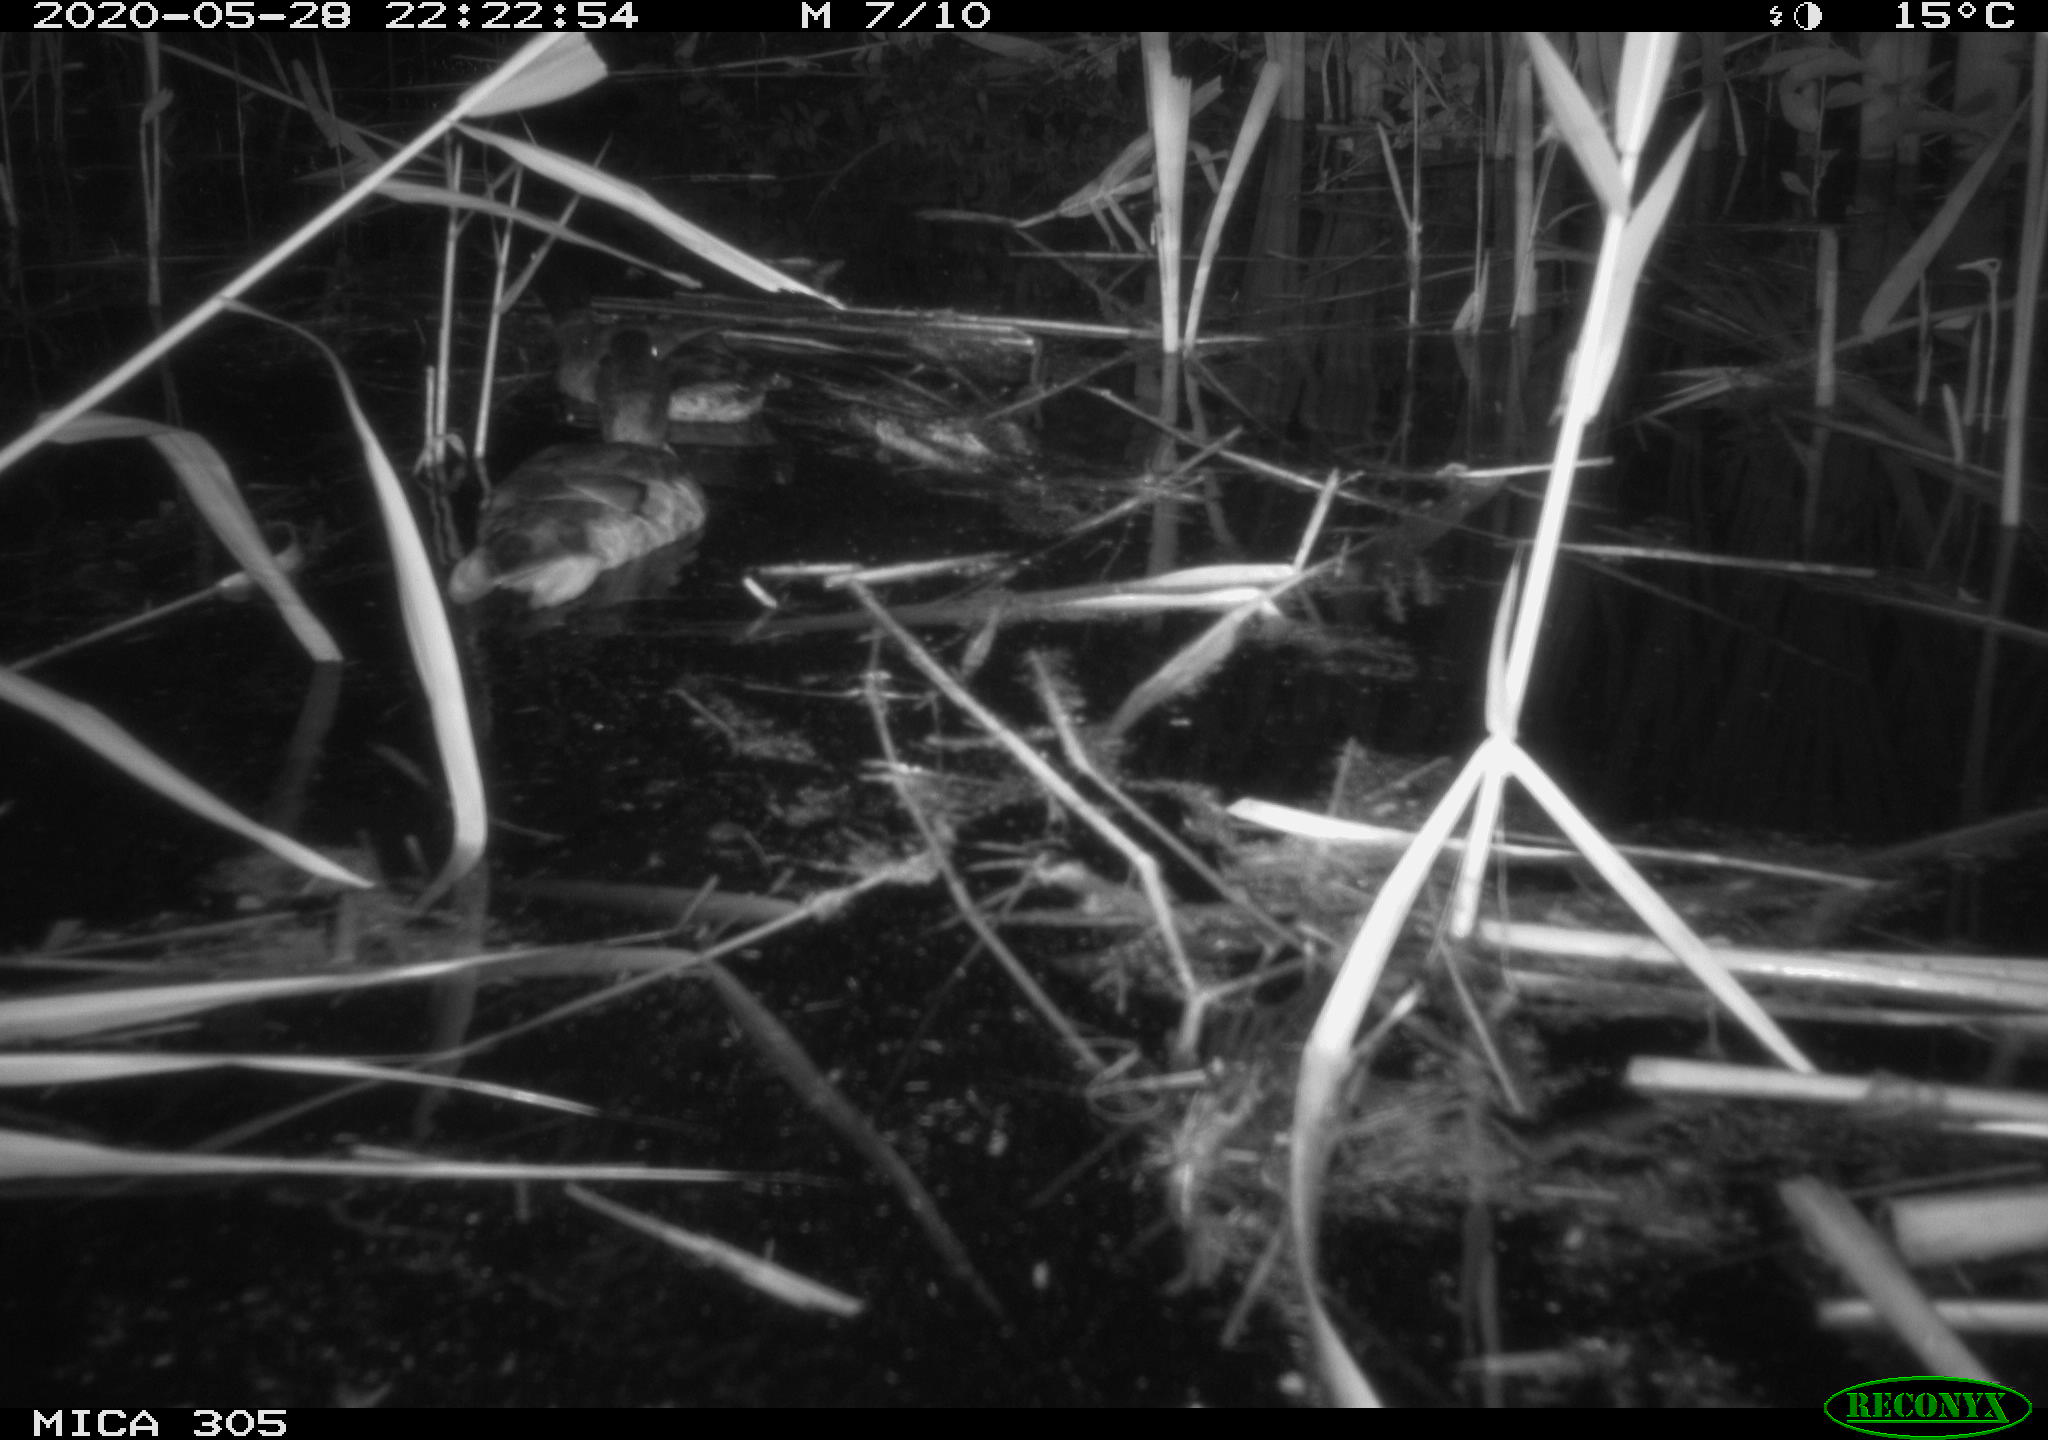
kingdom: Animalia
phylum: Chordata
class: Aves
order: Anseriformes
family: Anatidae
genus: Anas
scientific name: Anas platyrhynchos
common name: Mallard
